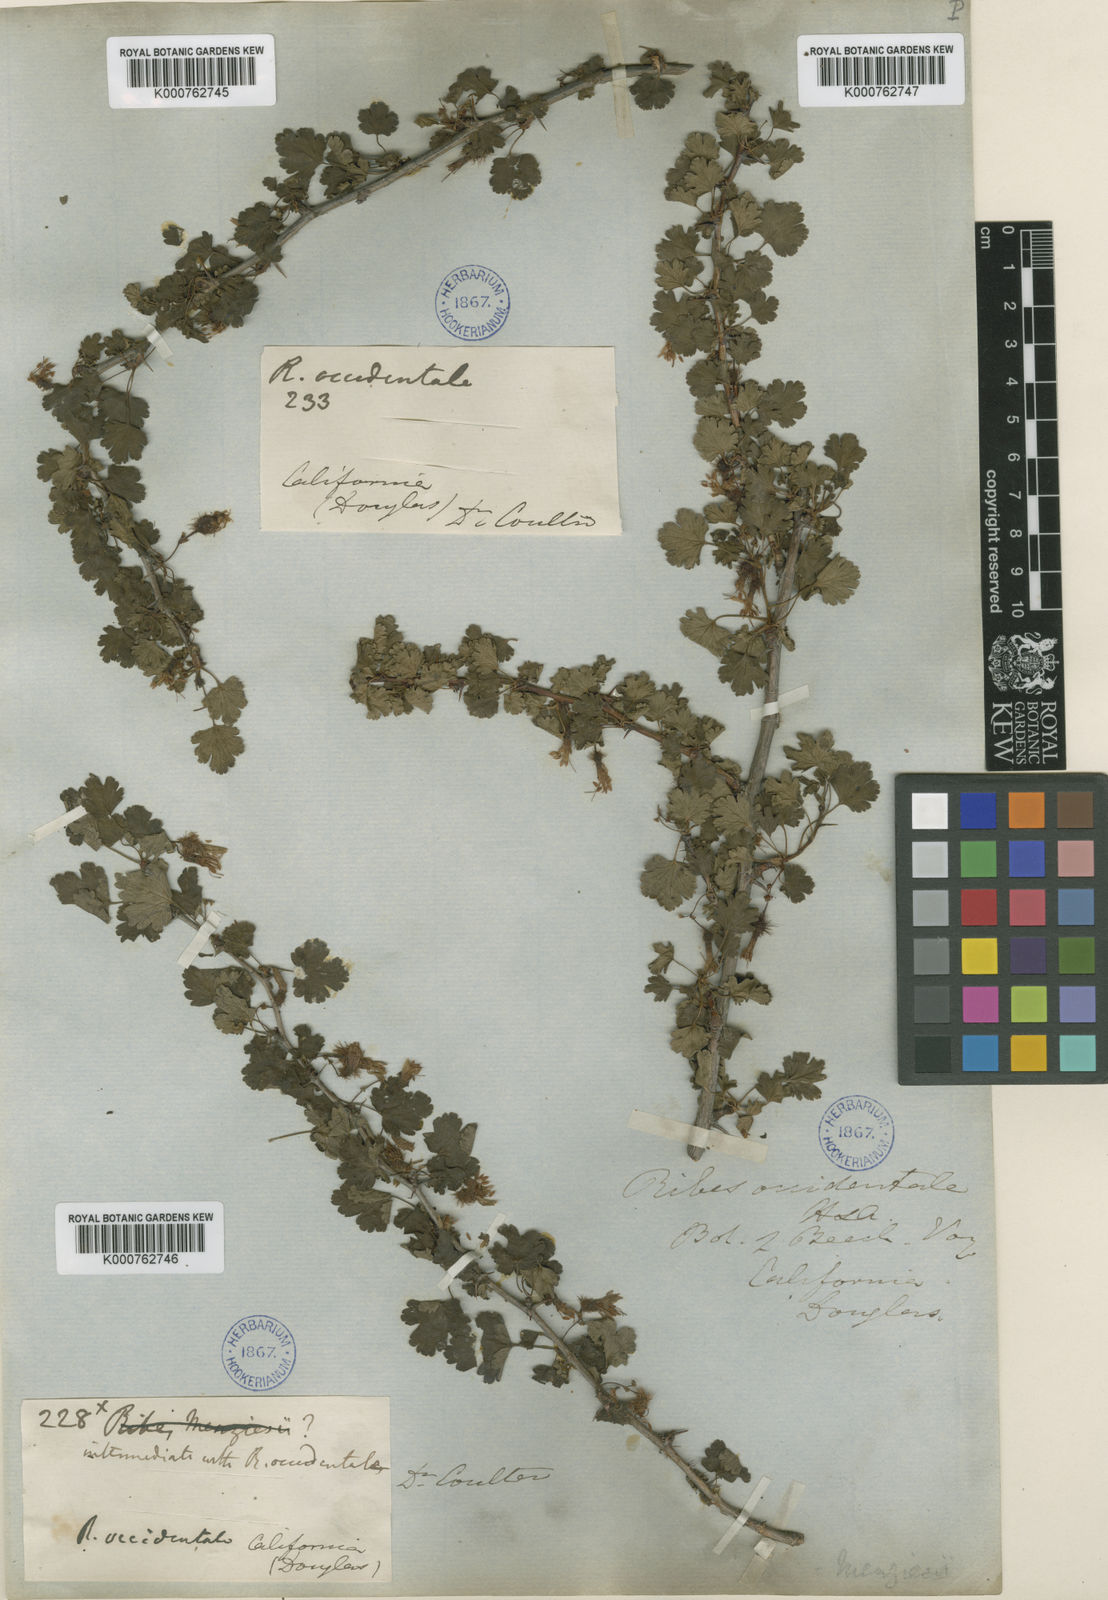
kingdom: Plantae
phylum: Tracheophyta
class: Magnoliopsida
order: Saxifragales
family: Grossulariaceae
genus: Ribes
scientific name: Ribes californicum
